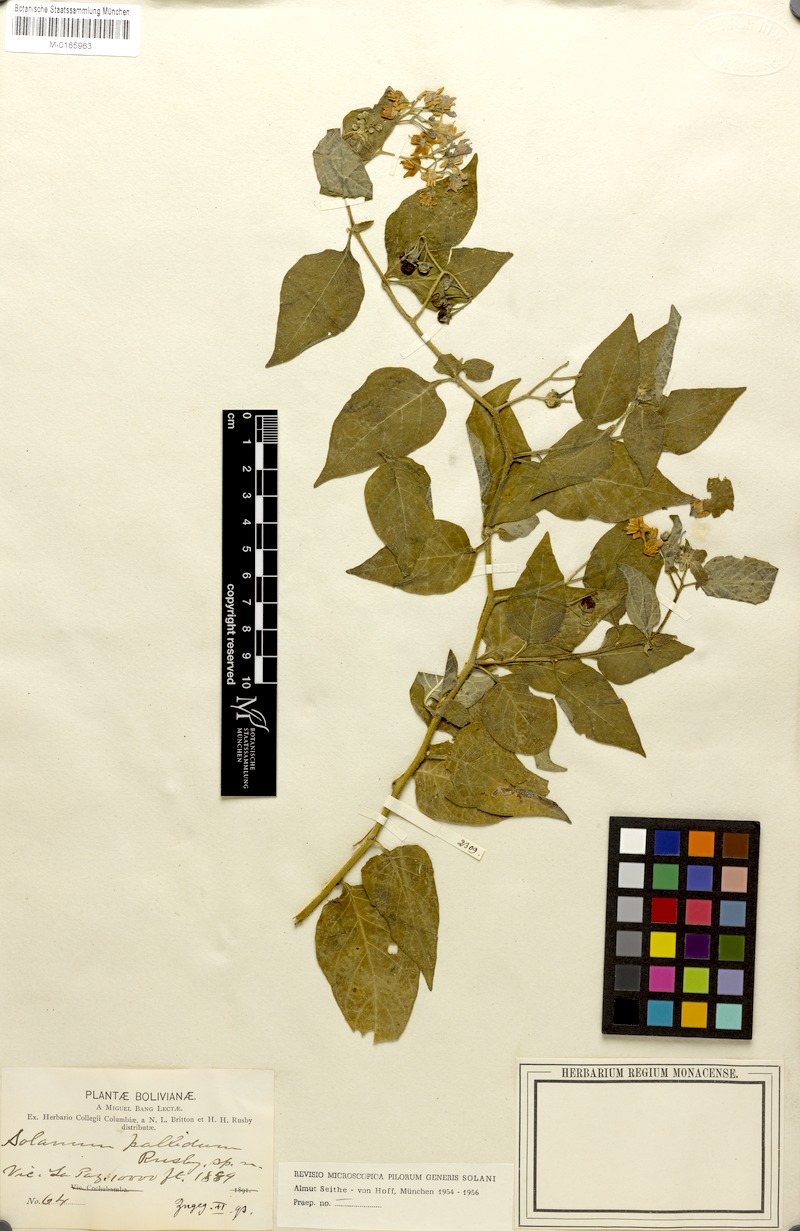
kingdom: Plantae
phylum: Tracheophyta
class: Magnoliopsida
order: Solanales
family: Solanaceae
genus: Solanum
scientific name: Solanum pallidum
